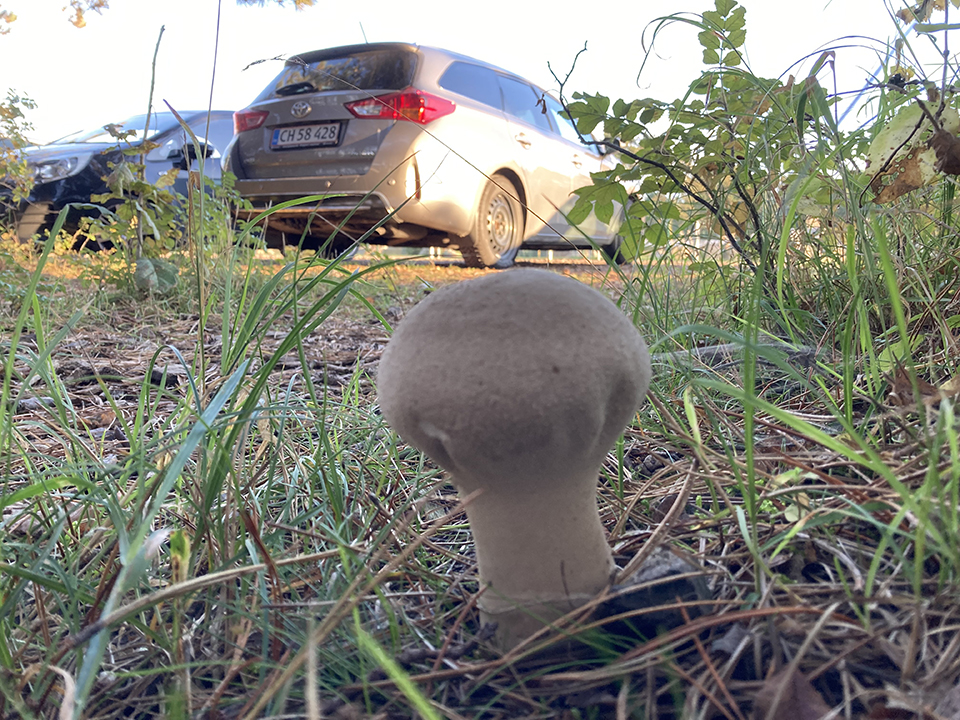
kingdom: Fungi
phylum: Basidiomycota
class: Agaricomycetes
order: Agaricales
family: Lycoperdaceae
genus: Lycoperdon
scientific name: Lycoperdon excipuliforme
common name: højstokket støvbold
